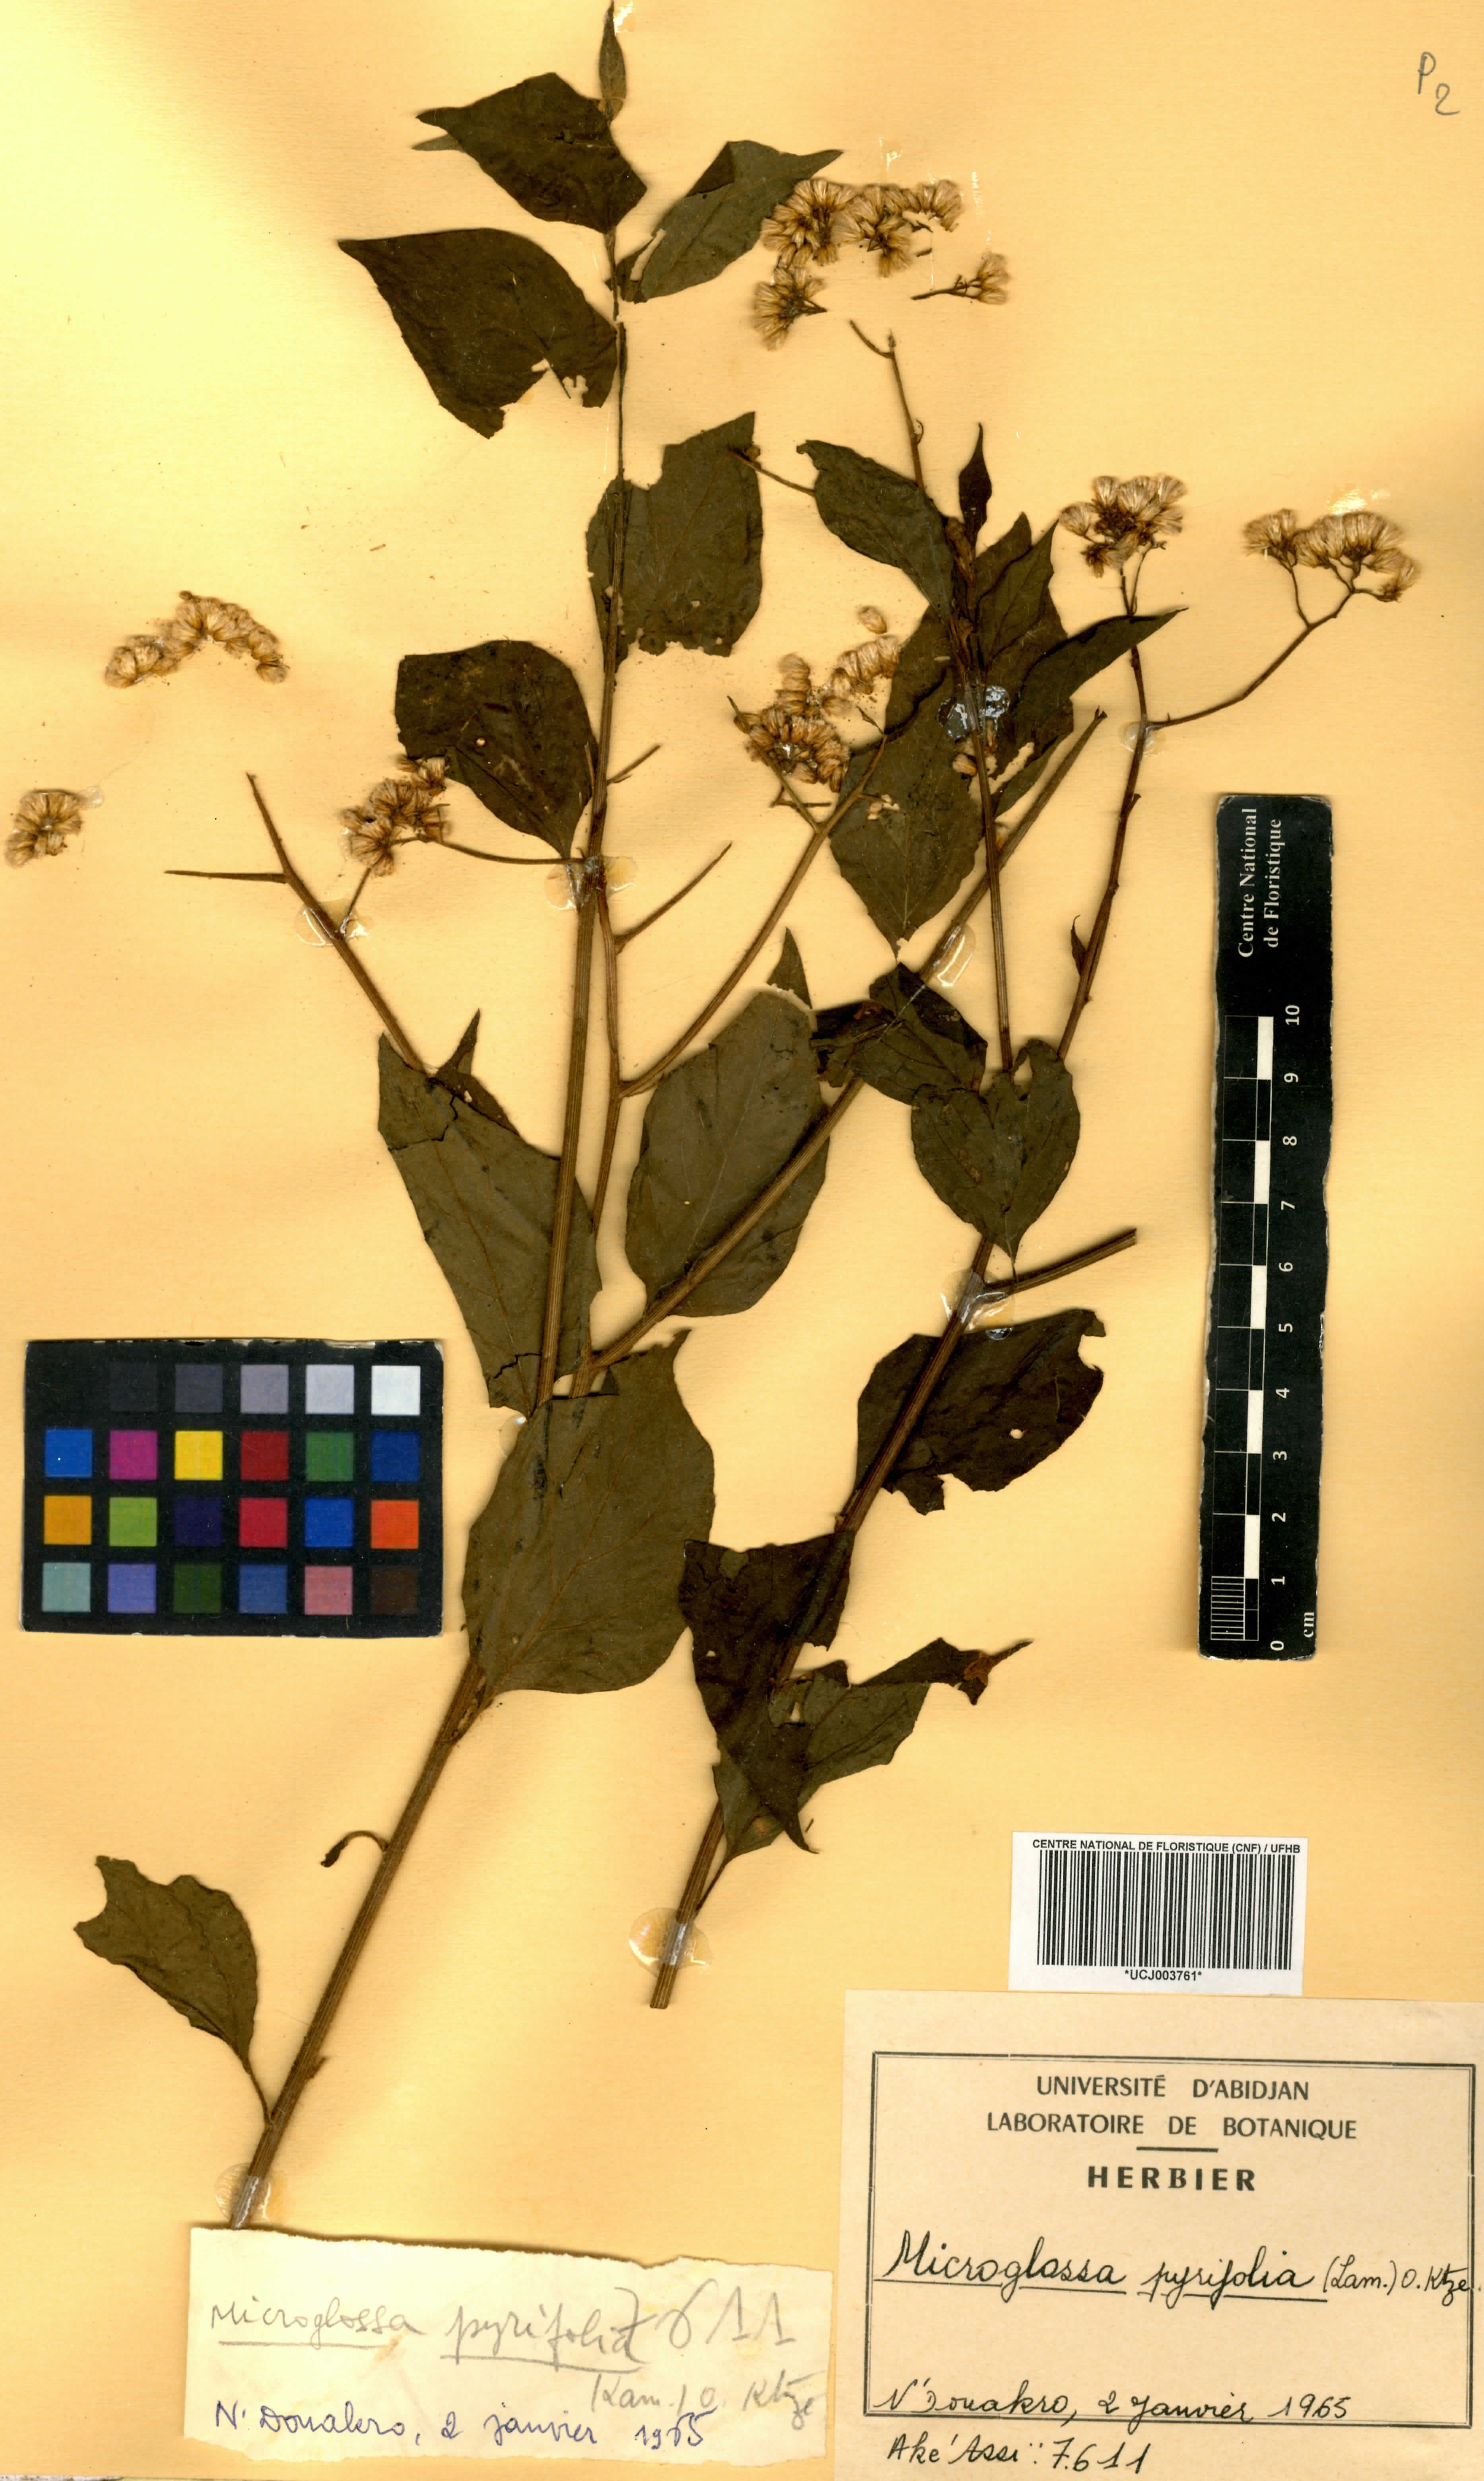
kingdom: Plantae
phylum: Tracheophyta
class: Magnoliopsida
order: Asterales
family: Asteraceae
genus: Microglossa
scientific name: Microglossa pyrifolia
